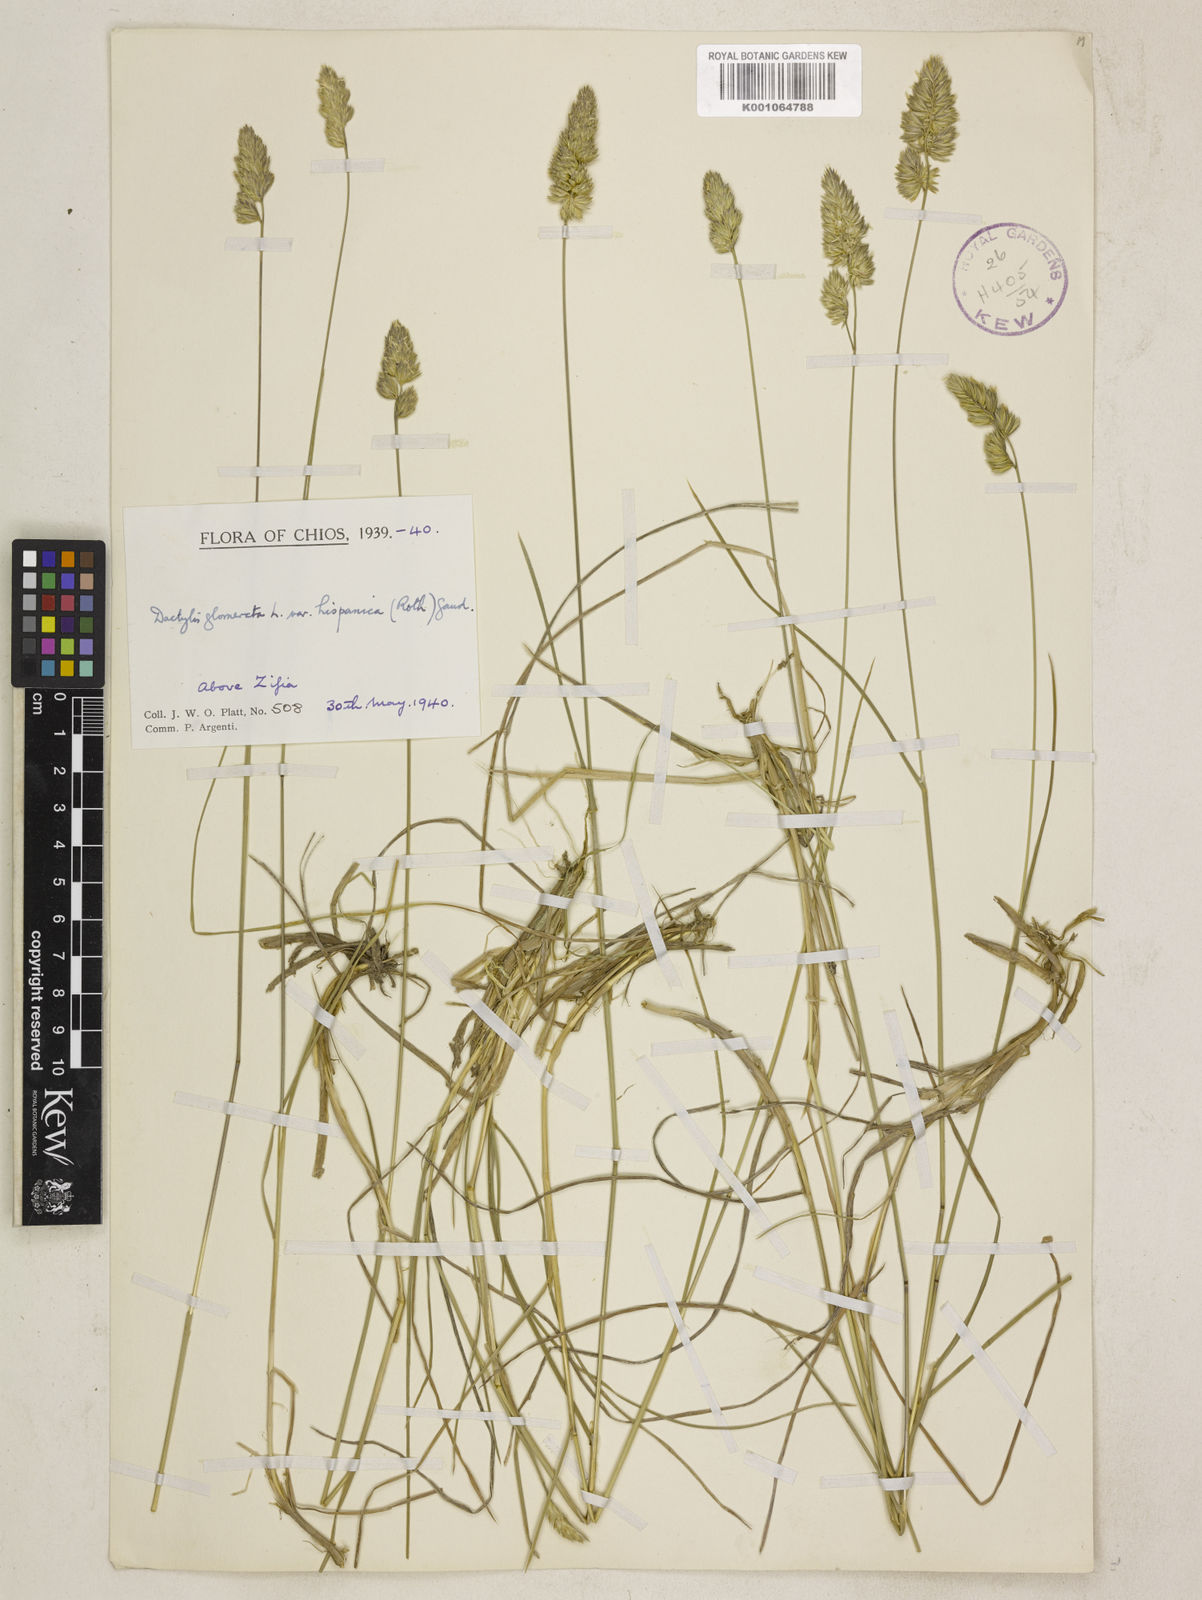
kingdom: Plantae
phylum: Tracheophyta
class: Liliopsida
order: Poales
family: Poaceae
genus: Dactylis
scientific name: Dactylis glomerata
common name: Orchardgrass
